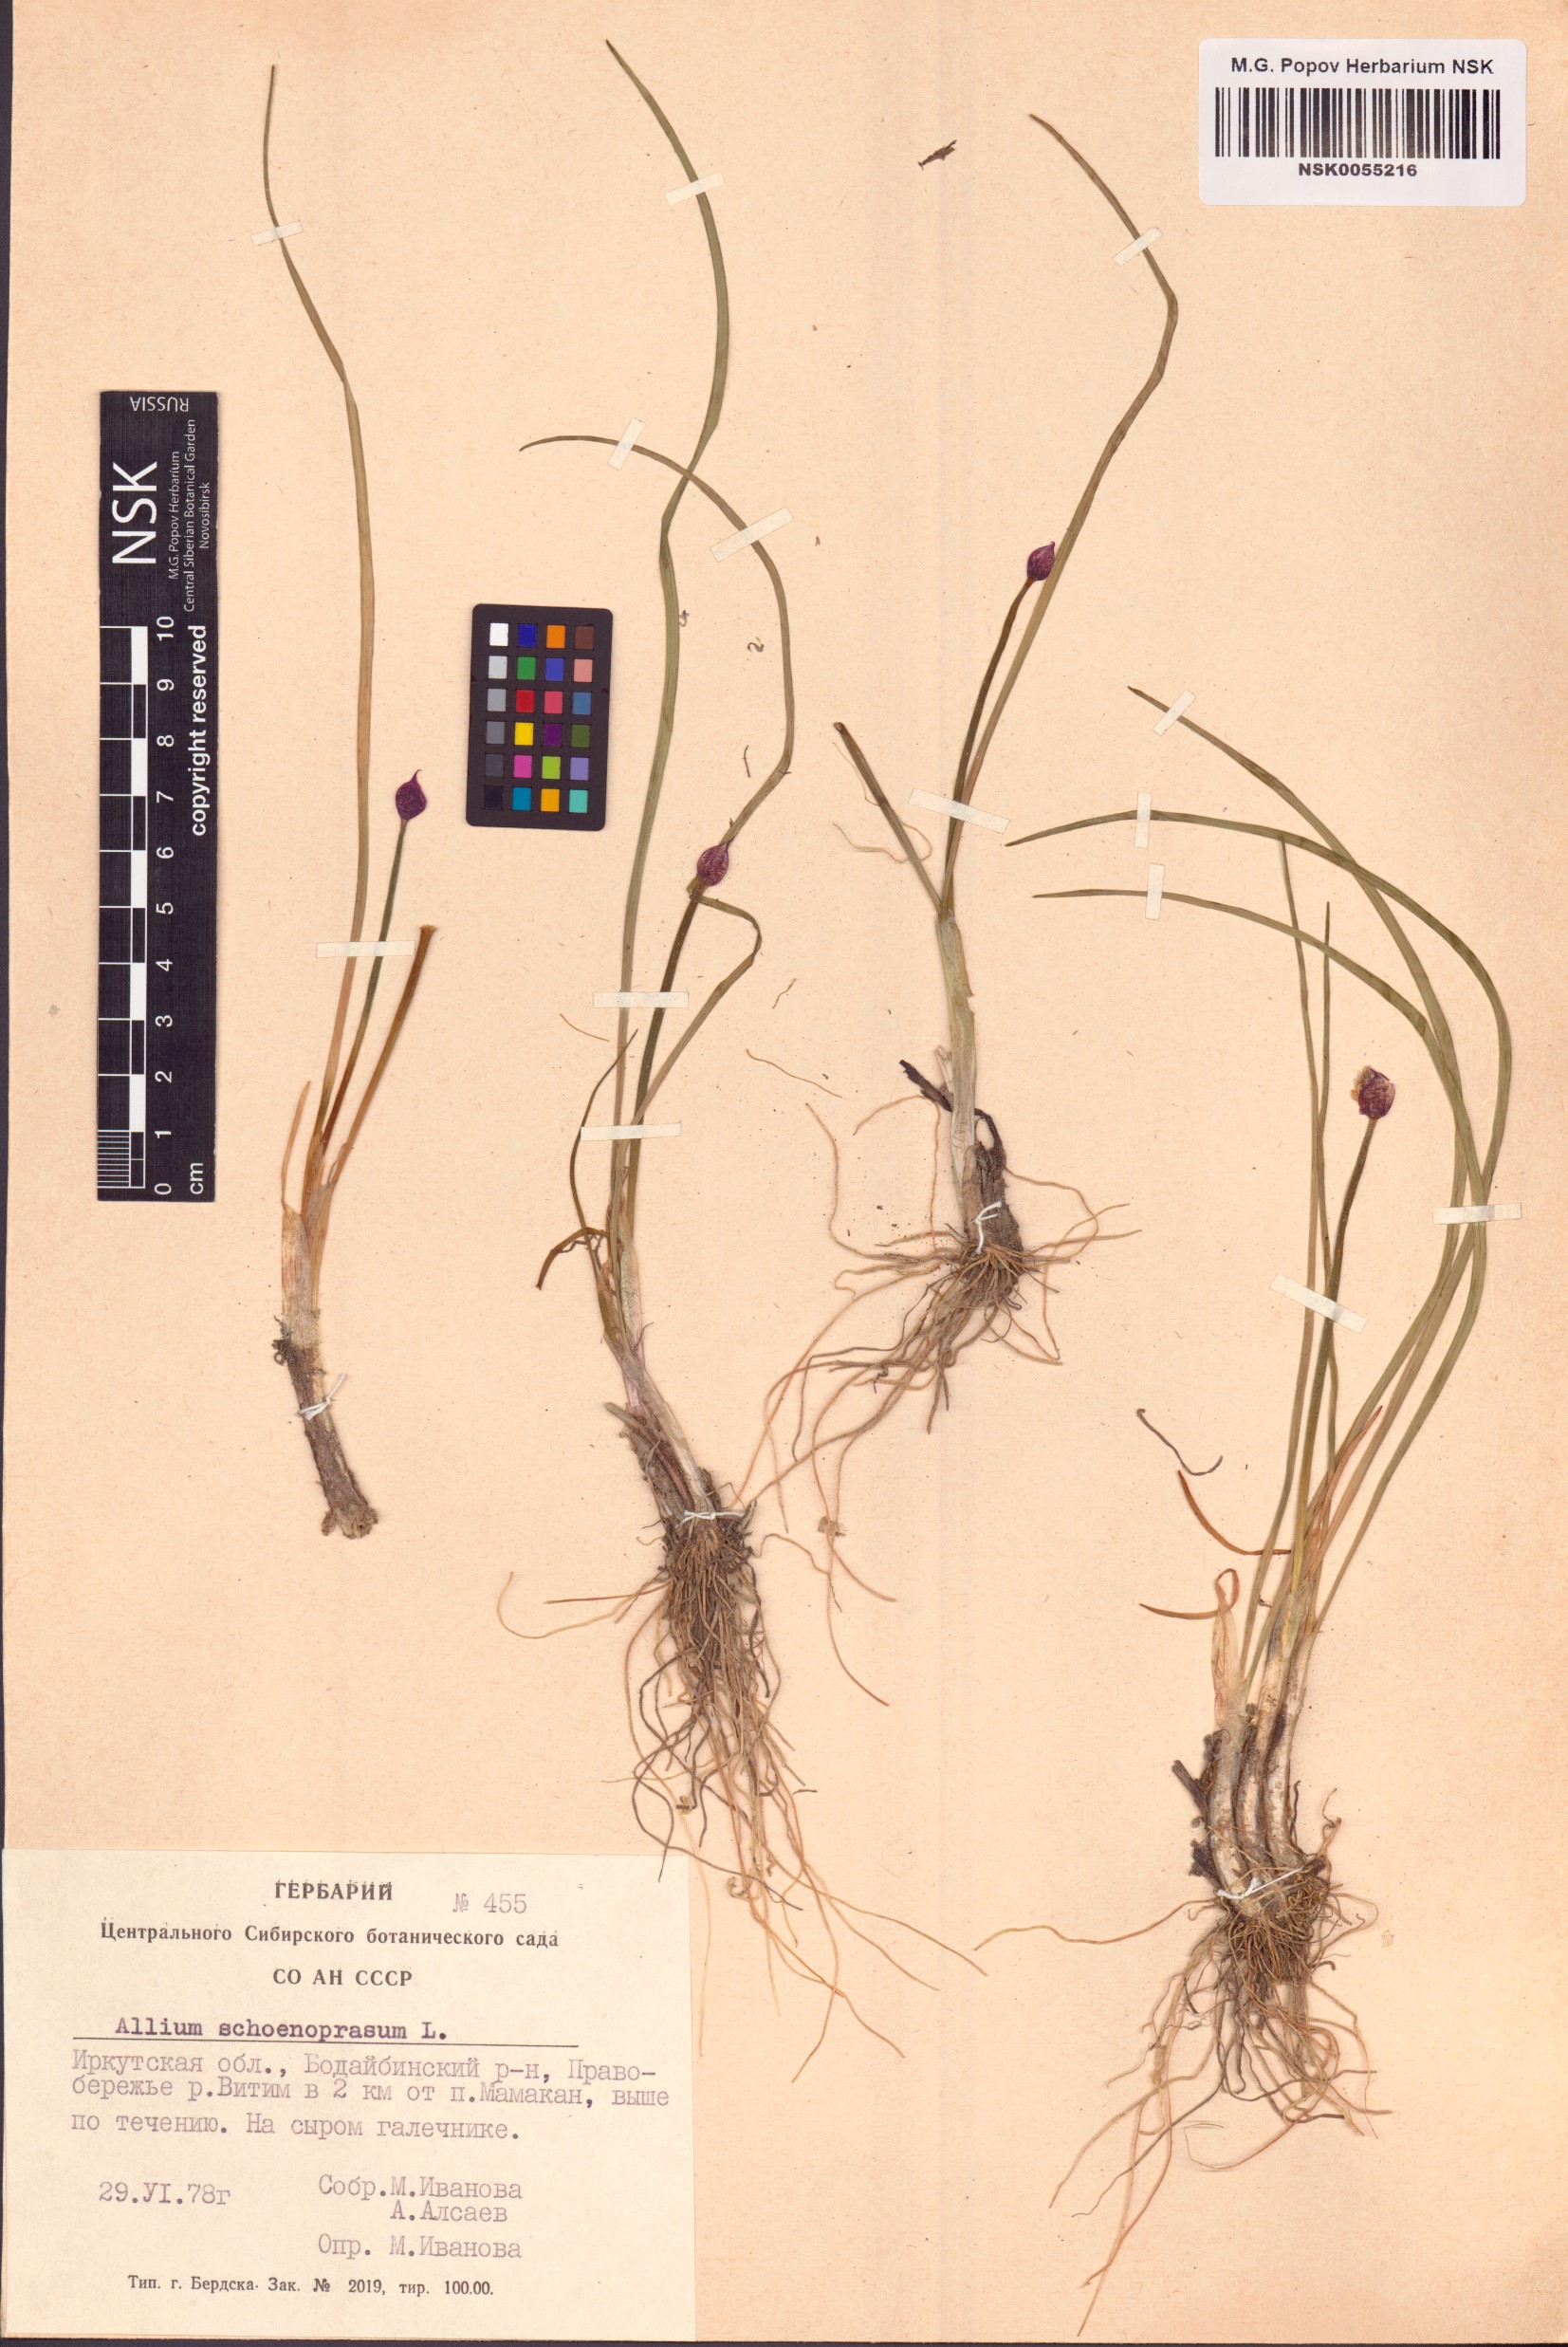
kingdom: Plantae
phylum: Tracheophyta
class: Liliopsida
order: Asparagales
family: Amaryllidaceae
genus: Allium
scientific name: Allium schoenoprasum
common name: Chives
